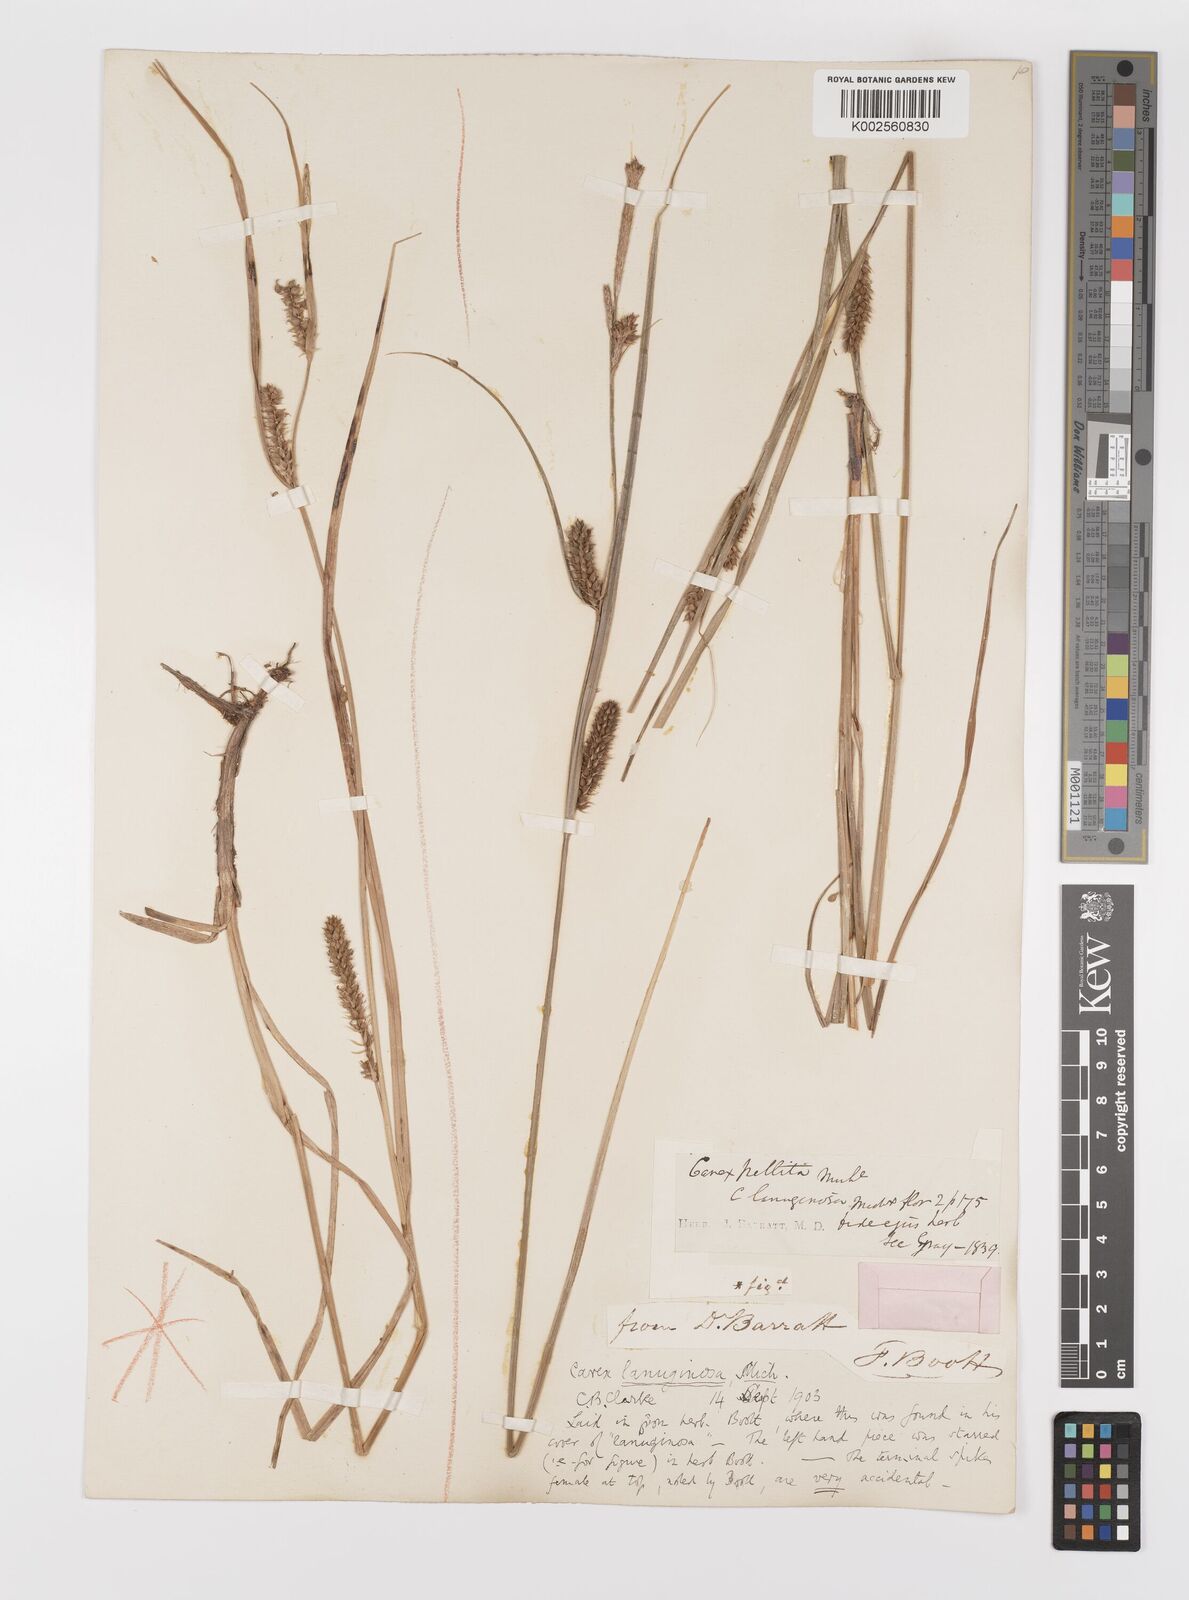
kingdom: Plantae
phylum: Tracheophyta
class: Liliopsida
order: Poales
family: Cyperaceae
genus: Carex
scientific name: Carex lasiocarpa
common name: Slender sedge
